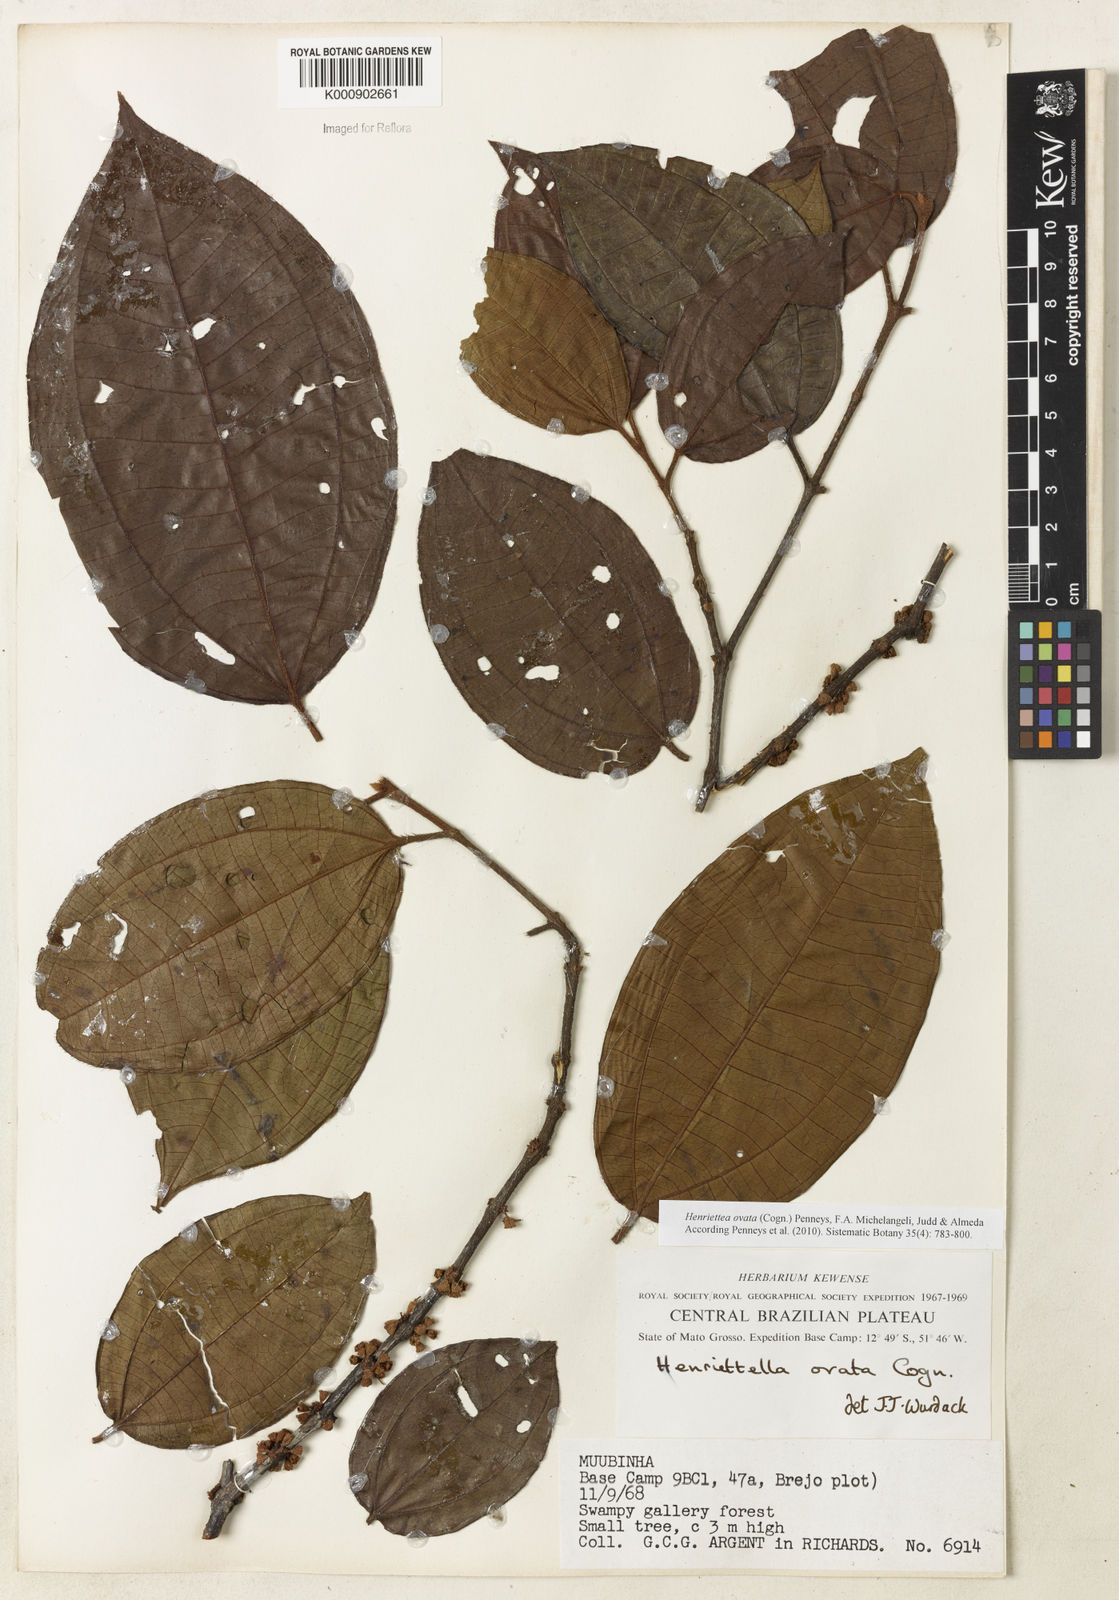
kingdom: Plantae
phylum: Tracheophyta
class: Magnoliopsida
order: Myrtales
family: Melastomataceae
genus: Henriettea
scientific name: Henriettea ovata
